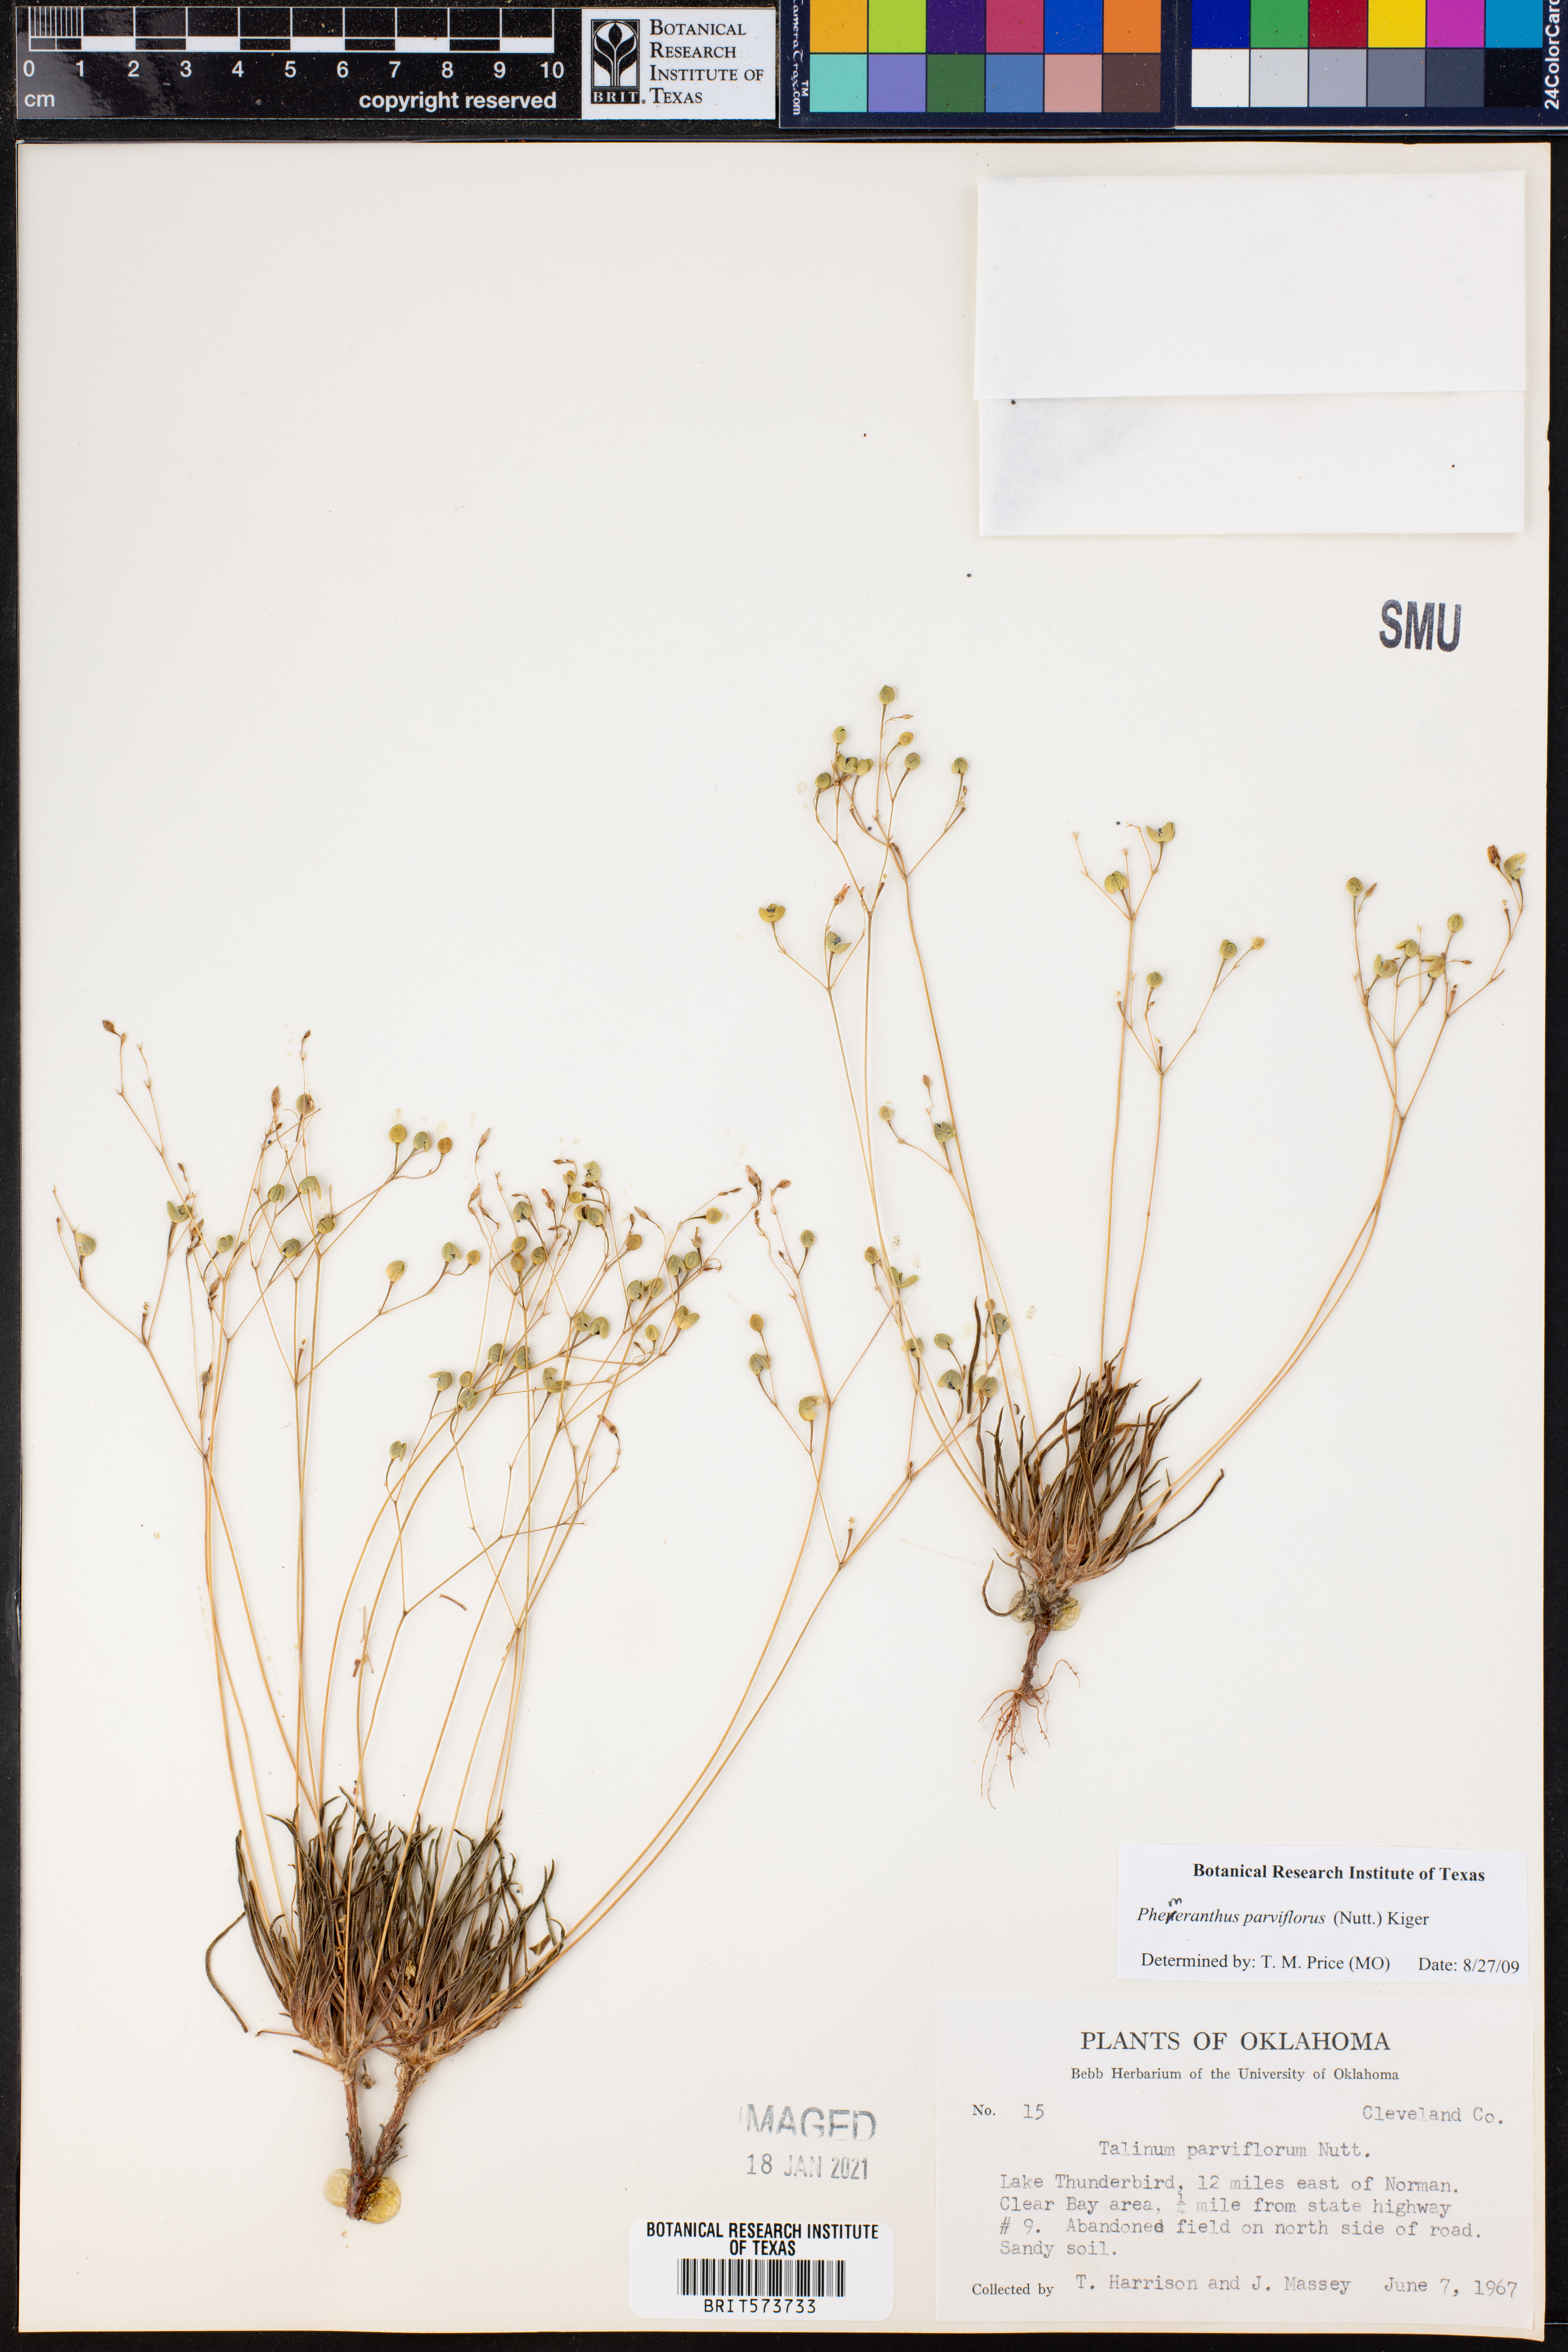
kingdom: Plantae
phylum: Tracheophyta
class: Magnoliopsida
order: Caryophyllales
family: Montiaceae
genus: Phemeranthus
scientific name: Phemeranthus parviflorus
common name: Sunbright
